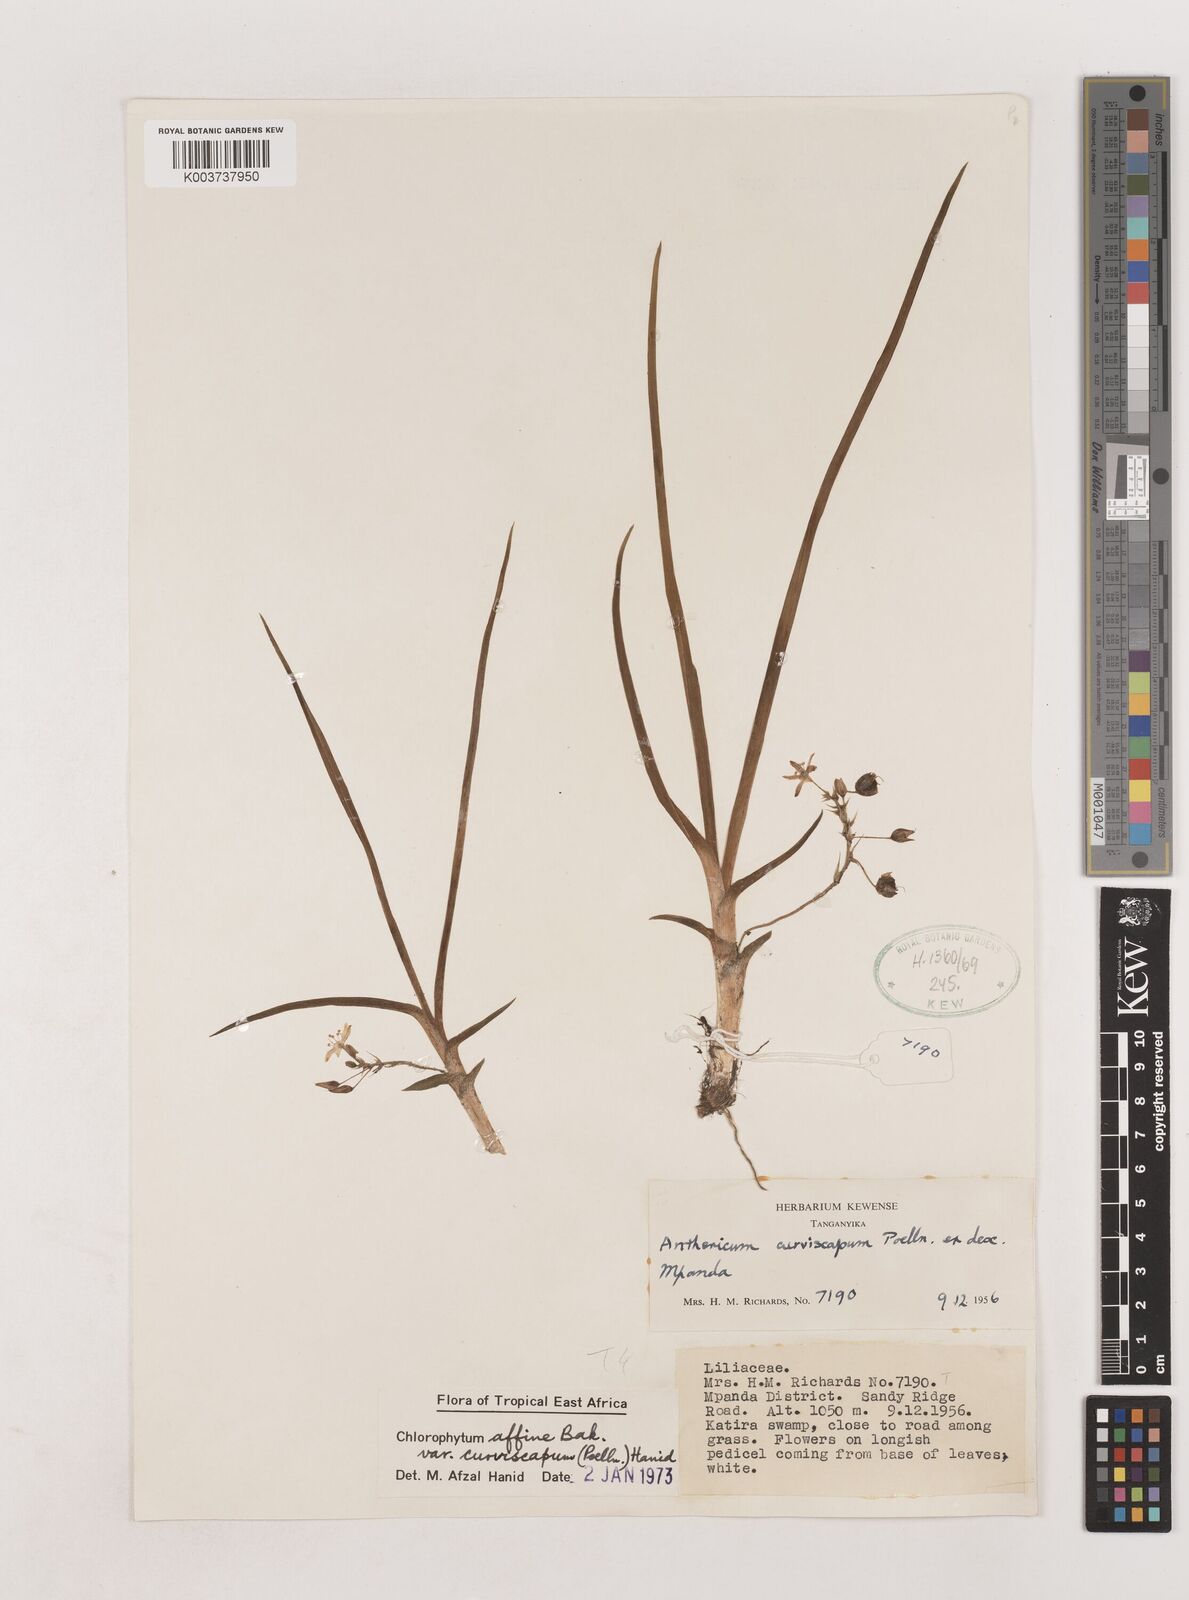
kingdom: Plantae
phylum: Tracheophyta
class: Liliopsida
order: Asparagales
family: Asparagaceae
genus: Chlorophytum
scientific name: Chlorophytum tordense
